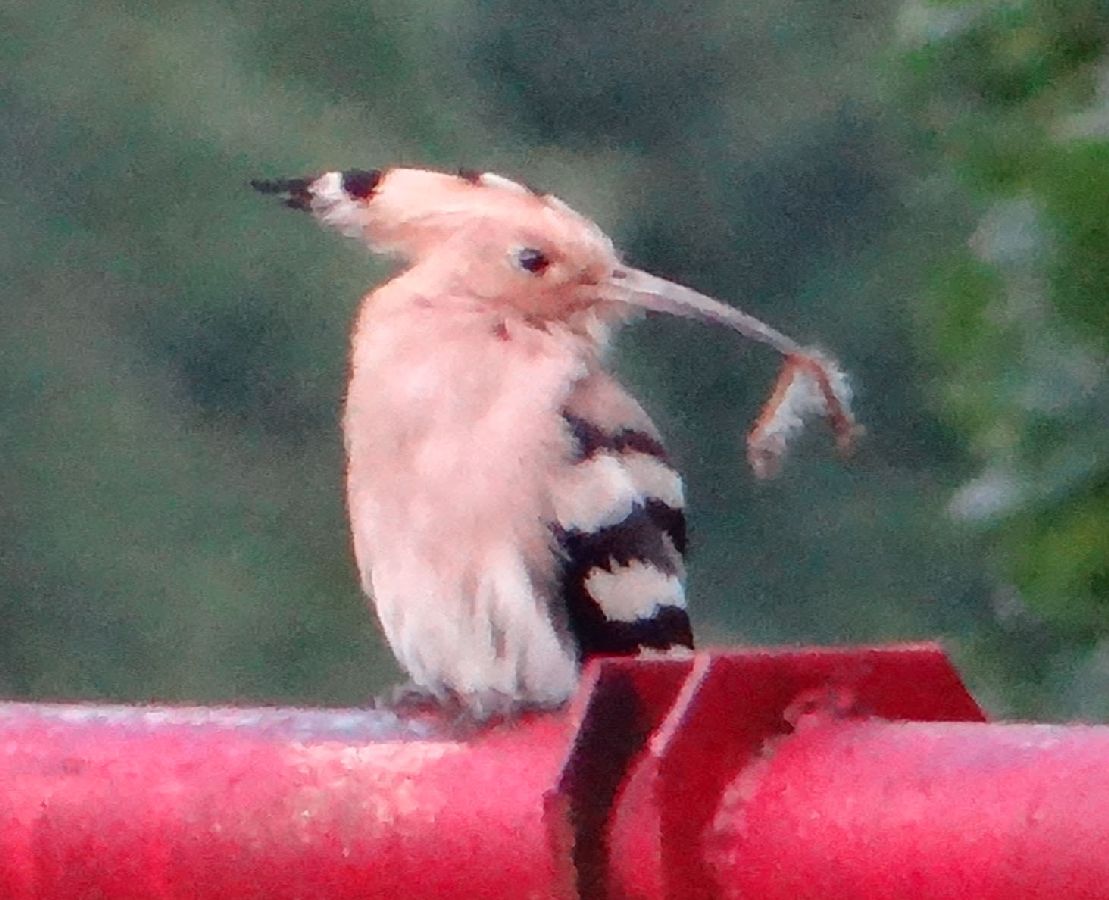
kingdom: Animalia
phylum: Chordata
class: Aves
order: Bucerotiformes
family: Upupidae
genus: Upupa
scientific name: Upupa epops
